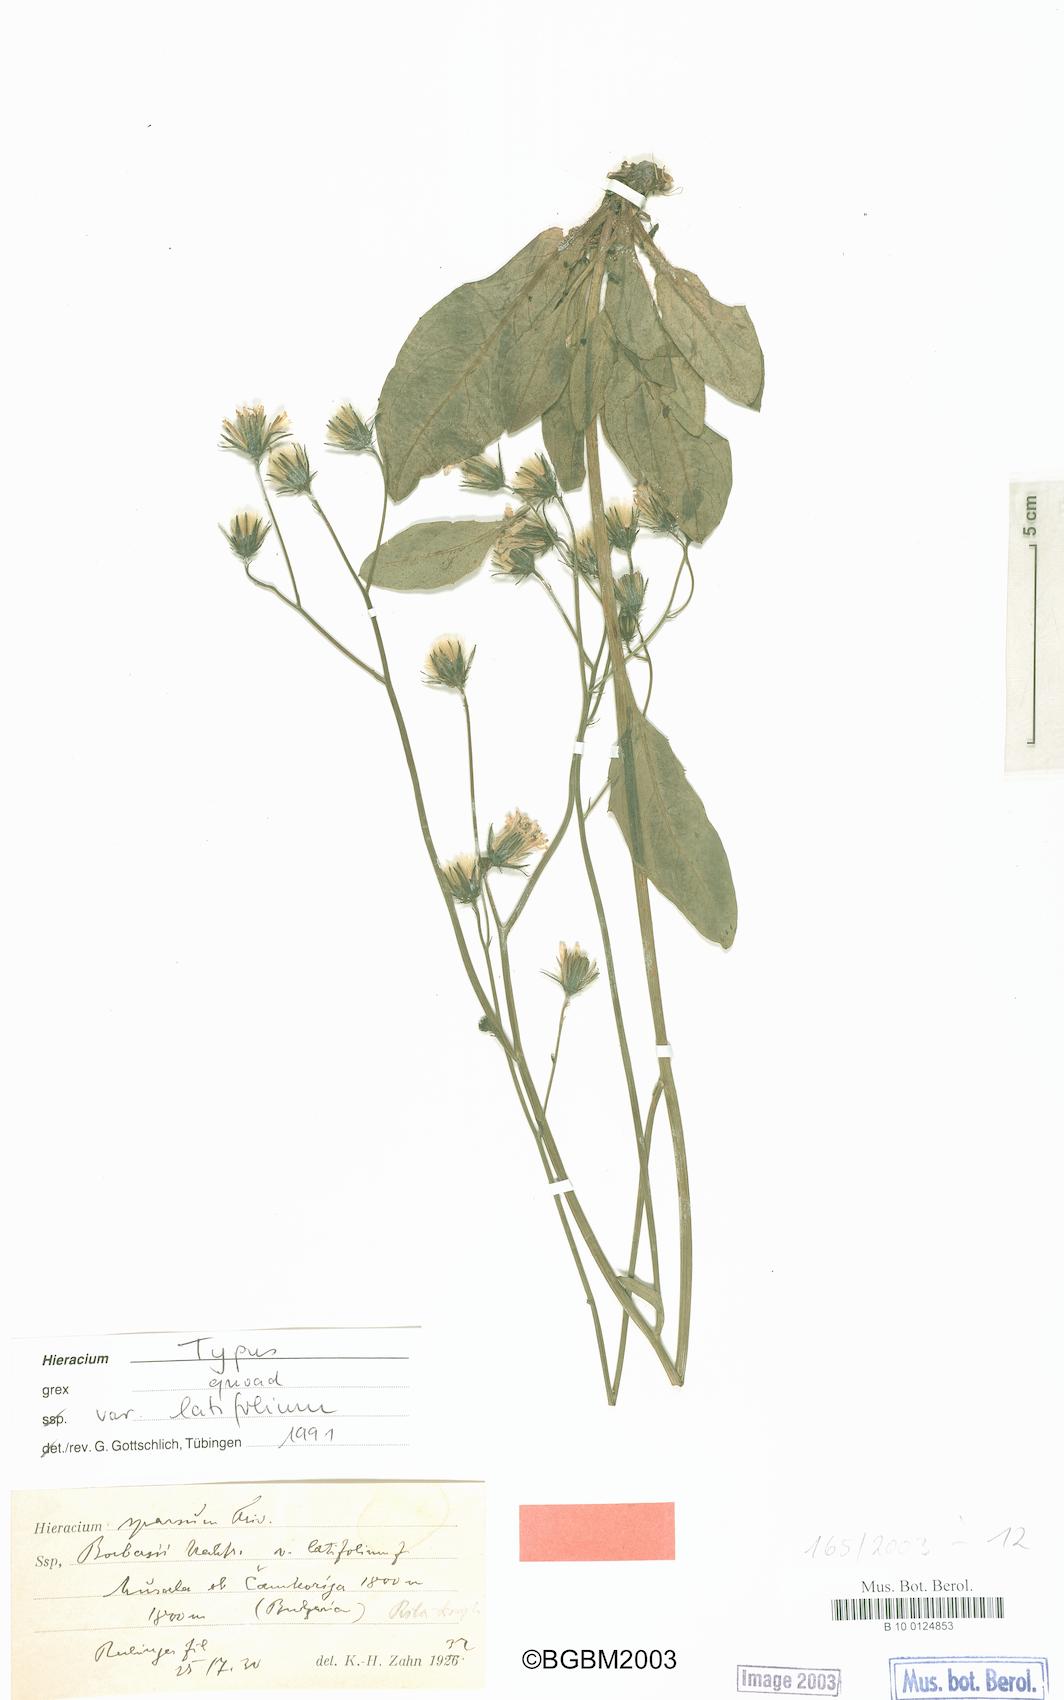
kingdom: Plantae
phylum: Tracheophyta
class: Magnoliopsida
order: Asterales
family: Asteraceae
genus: Hieracium
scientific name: Hieracium sparsum
